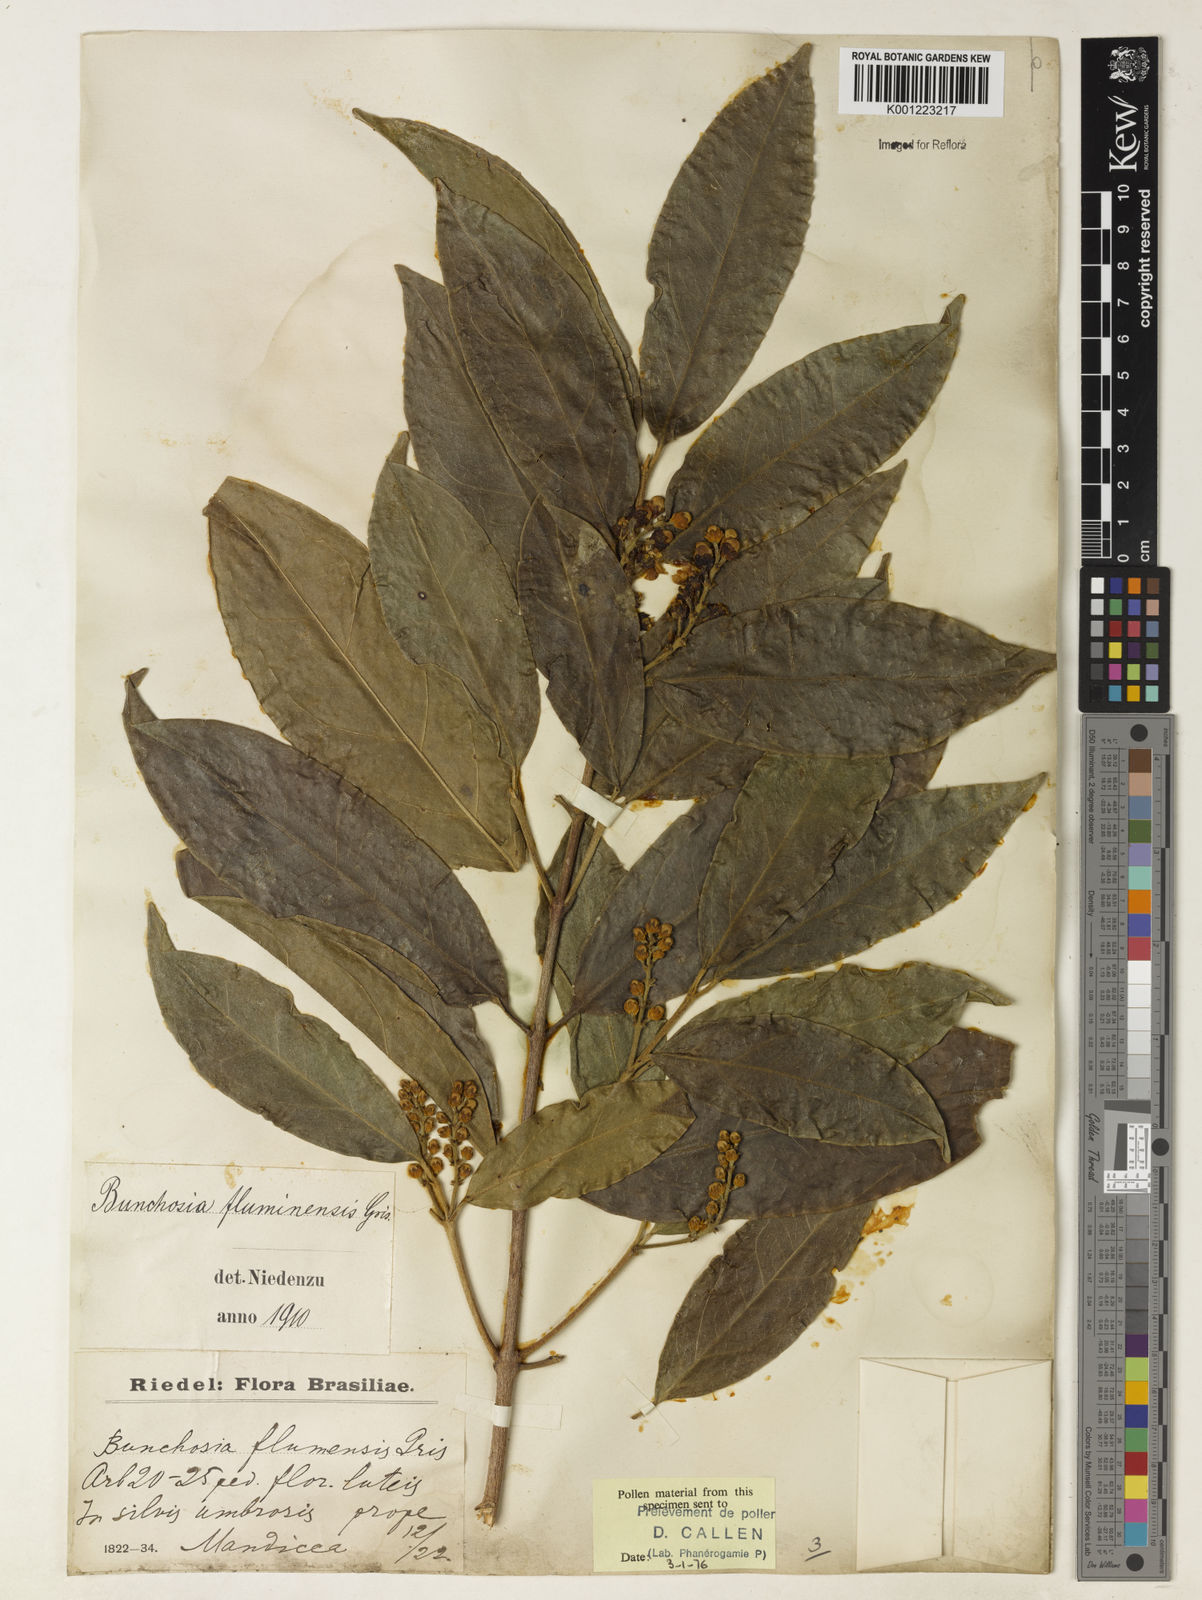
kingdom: Plantae
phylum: Tracheophyta
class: Magnoliopsida
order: Malpighiales
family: Malpighiaceae
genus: Bunchosia
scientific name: Bunchosia fluminensis
